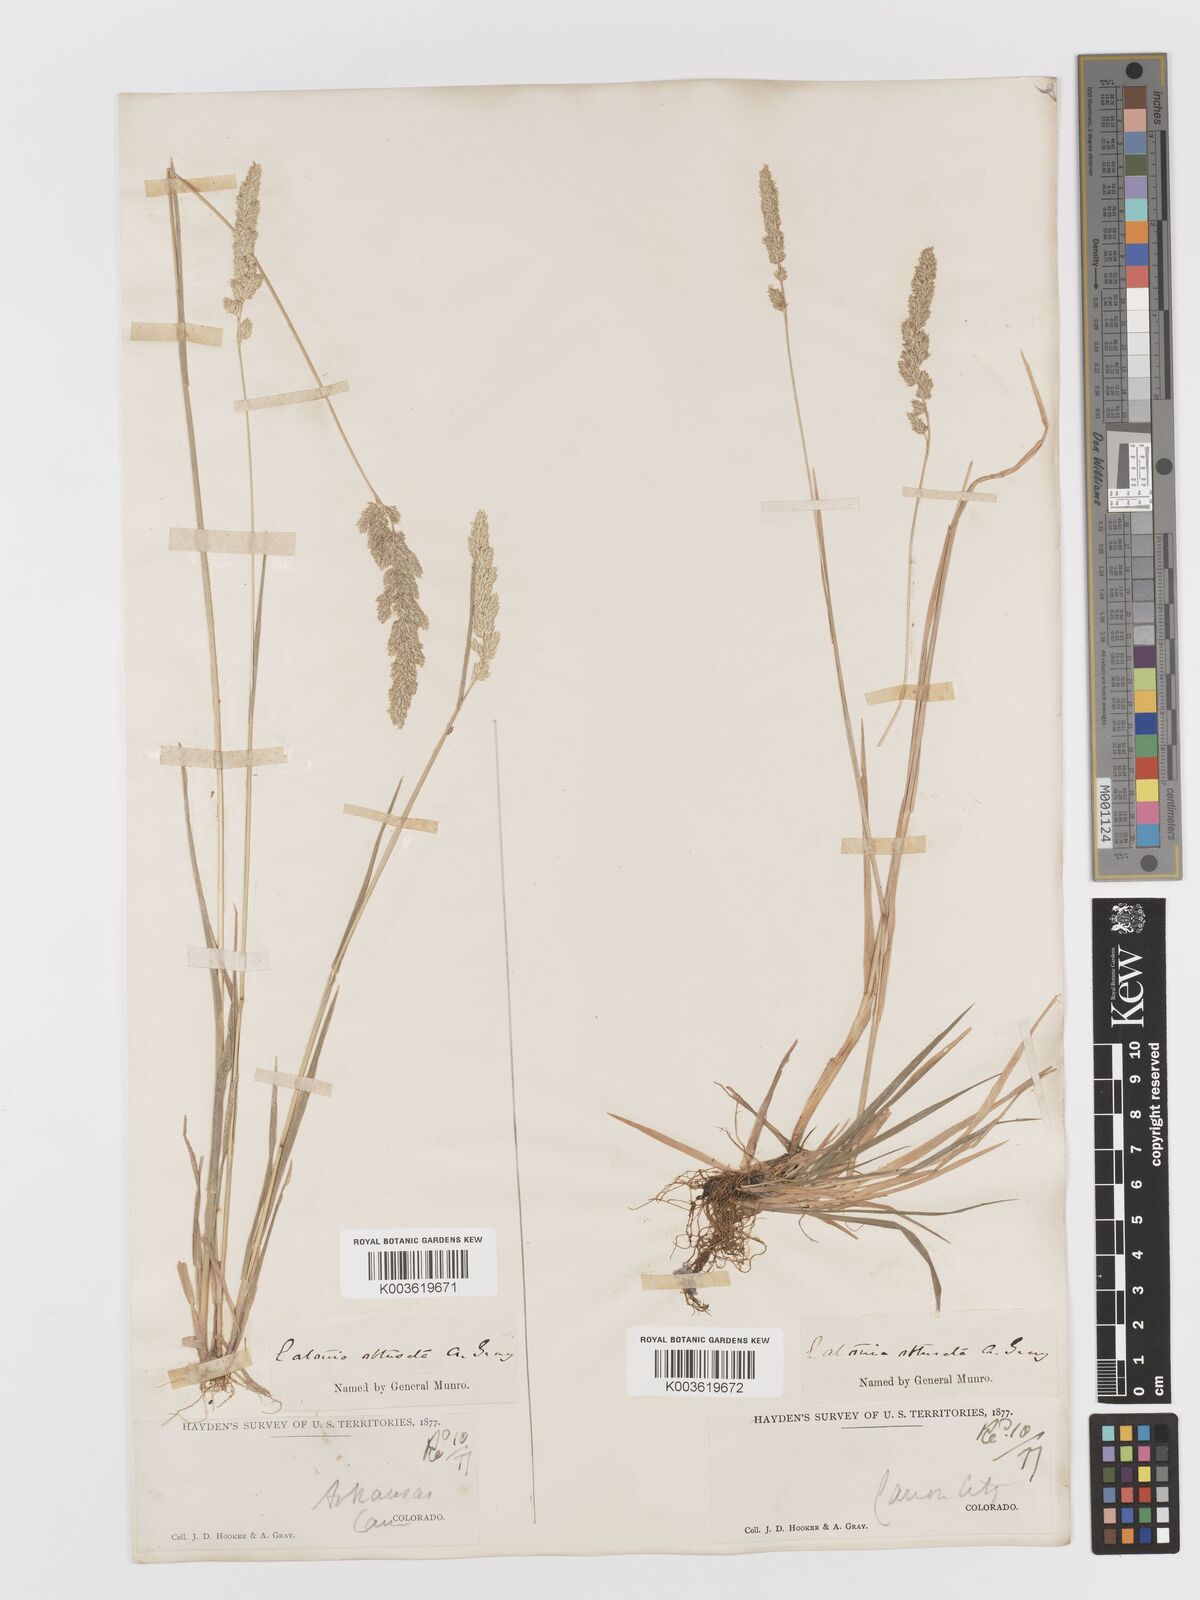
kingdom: Plantae
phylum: Tracheophyta
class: Liliopsida
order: Poales
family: Poaceae
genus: Sphenopholis
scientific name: Sphenopholis obtusata
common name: Prairie grass
